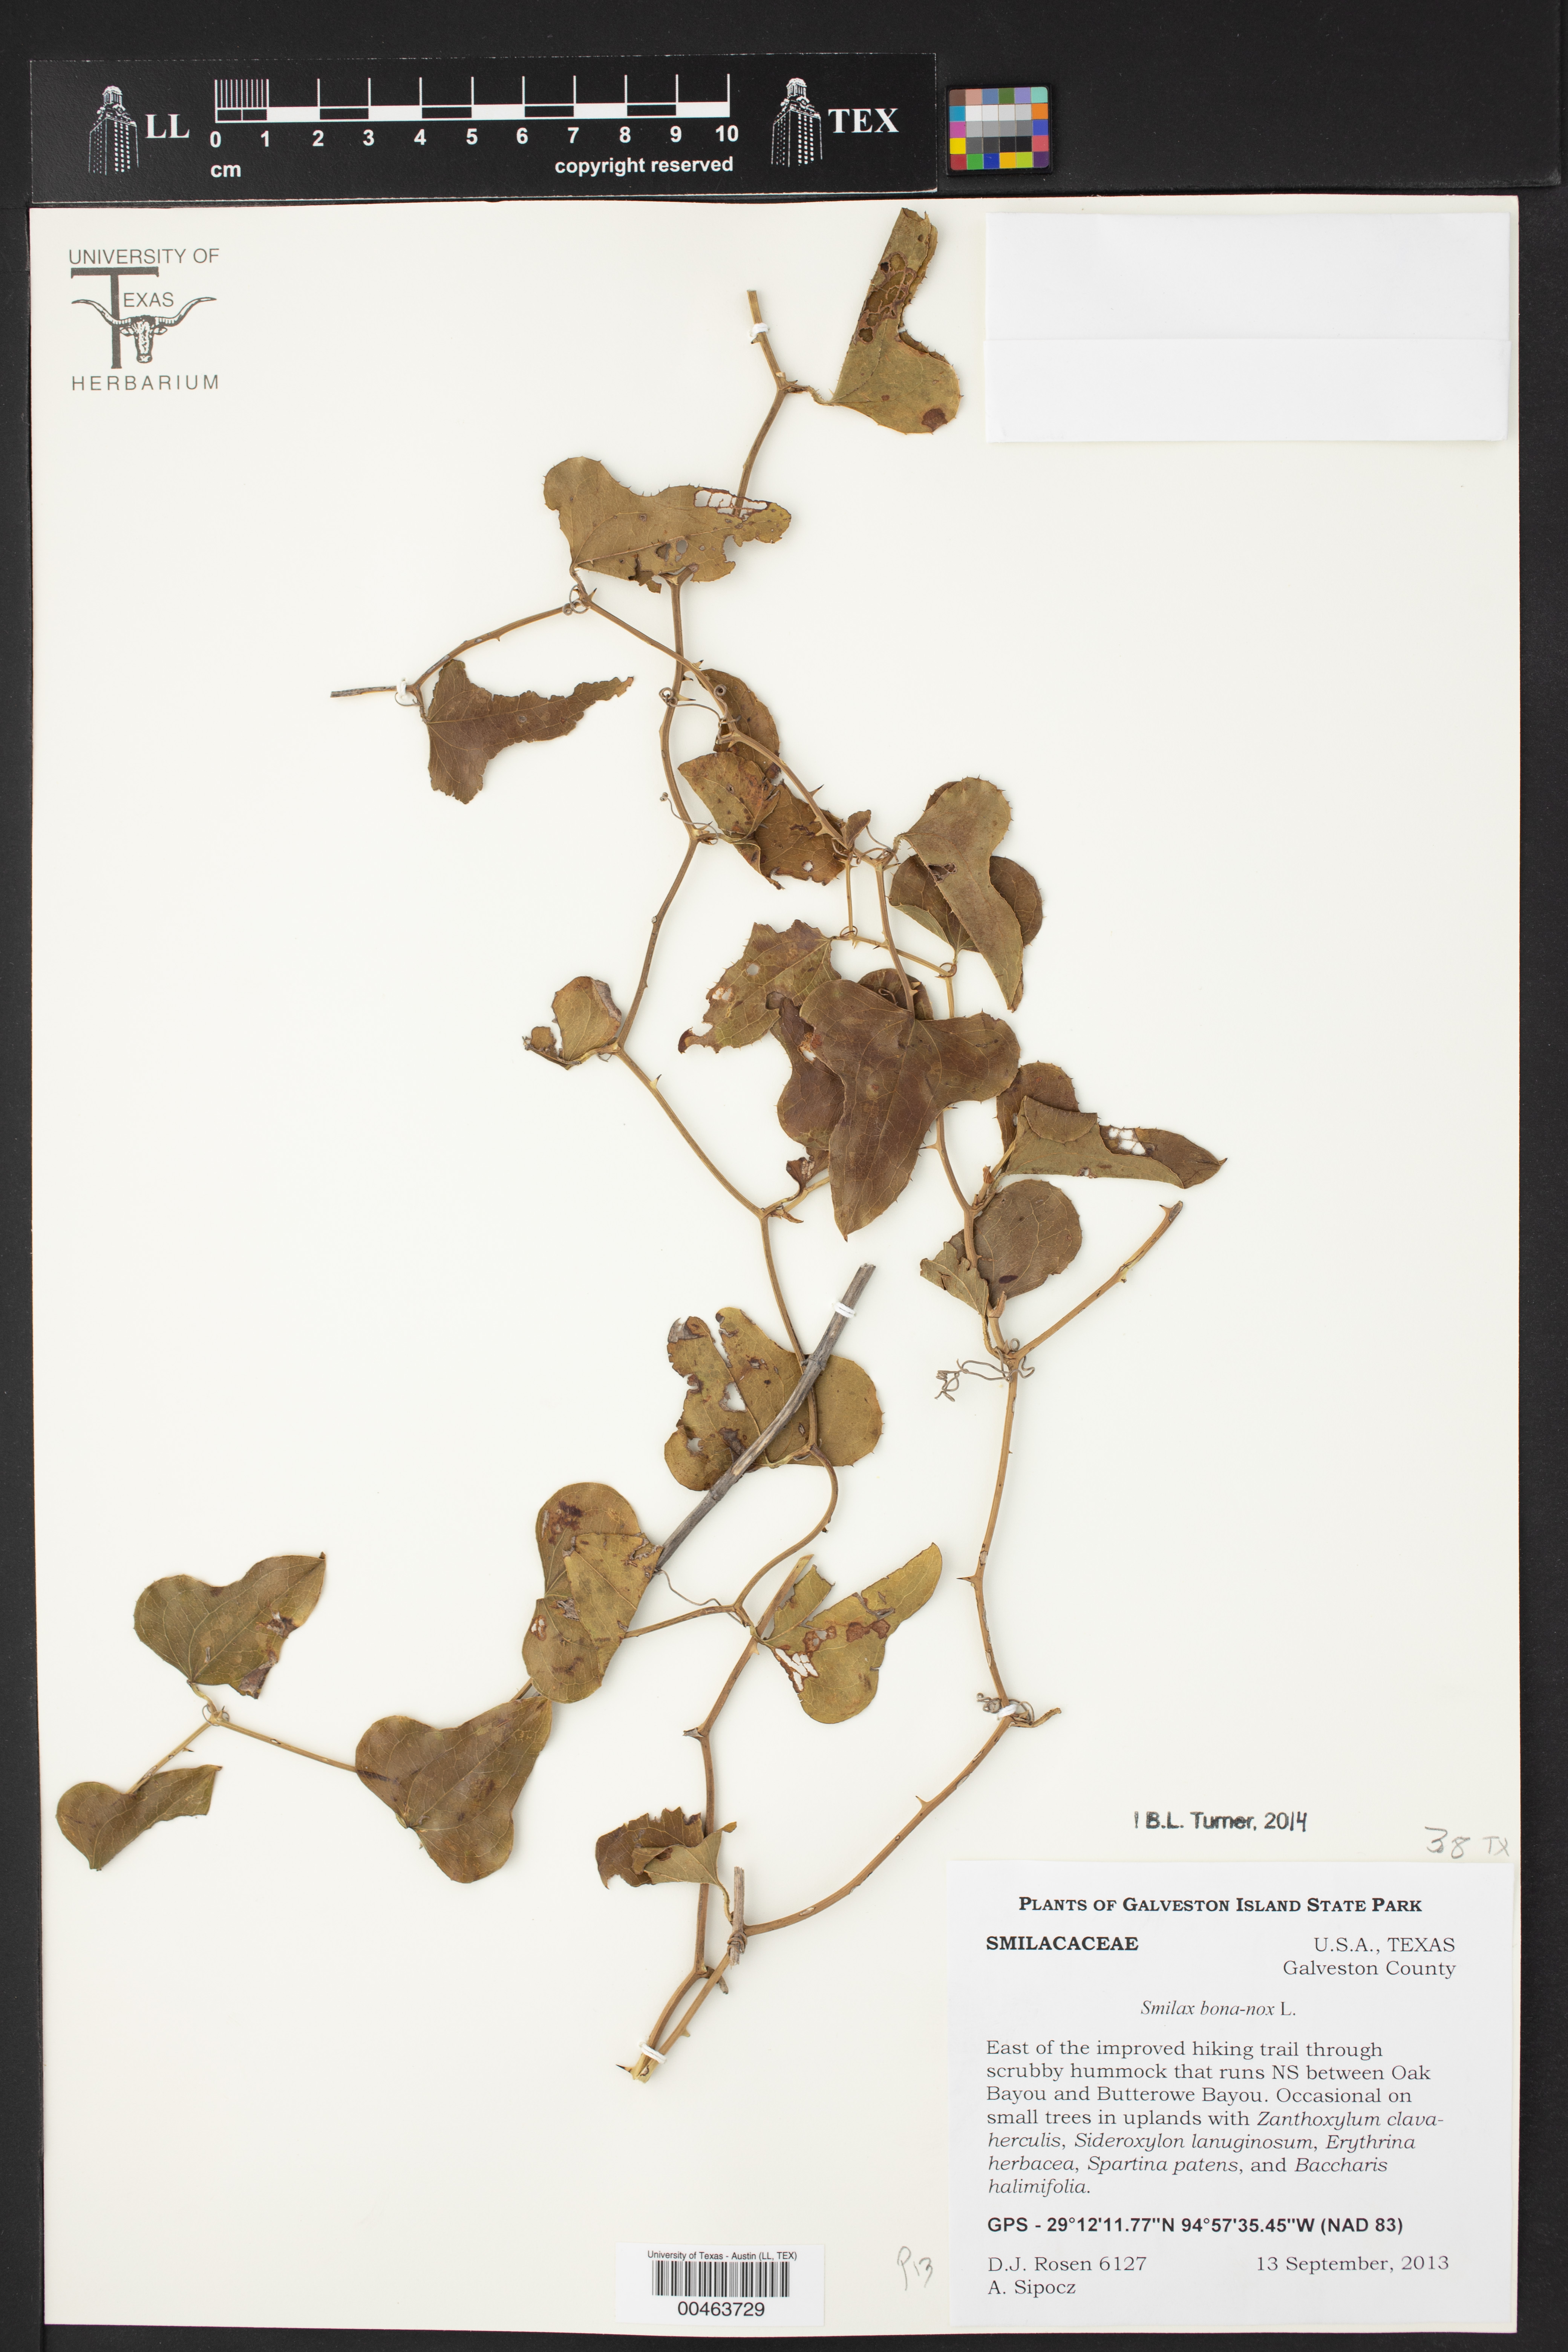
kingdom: Plantae
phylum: Tracheophyta
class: Liliopsida
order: Liliales
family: Smilacaceae
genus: Smilax
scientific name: Smilax bona-nox
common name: Catbrier
